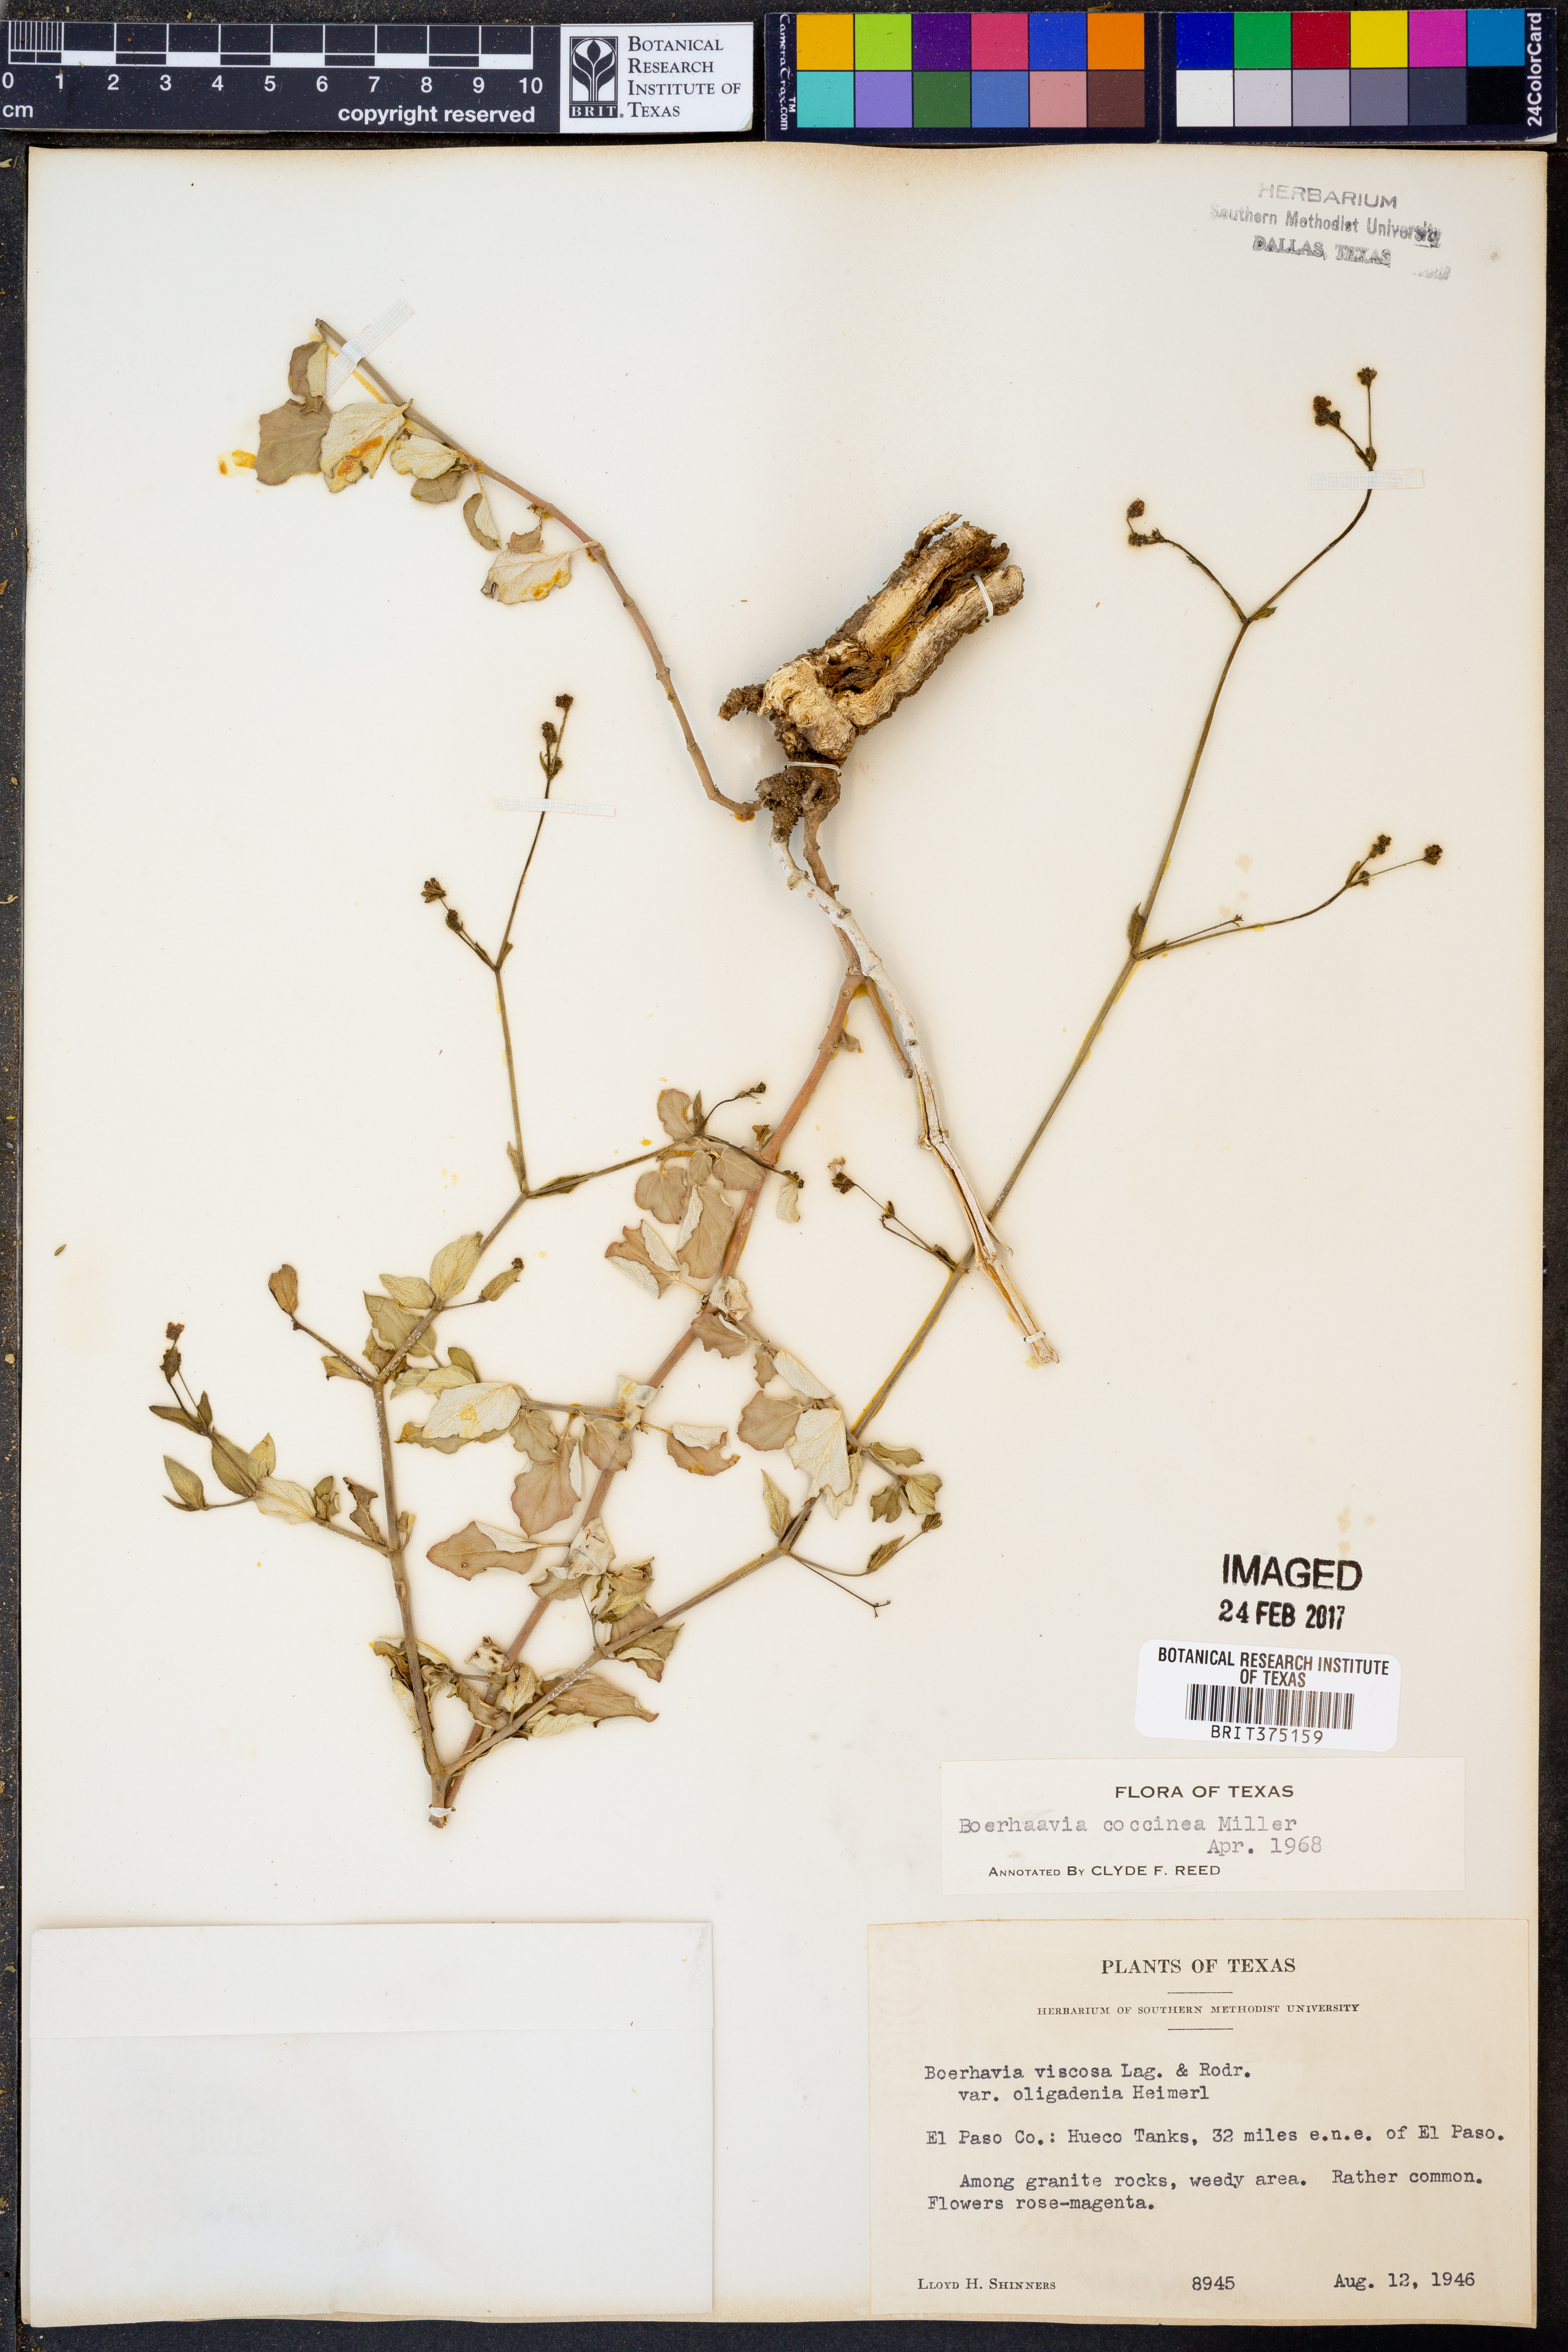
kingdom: Plantae
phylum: Tracheophyta
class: Magnoliopsida
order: Caryophyllales
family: Nyctaginaceae
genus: Boerhavia
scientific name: Boerhavia coccinea
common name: Scarlet spiderling
